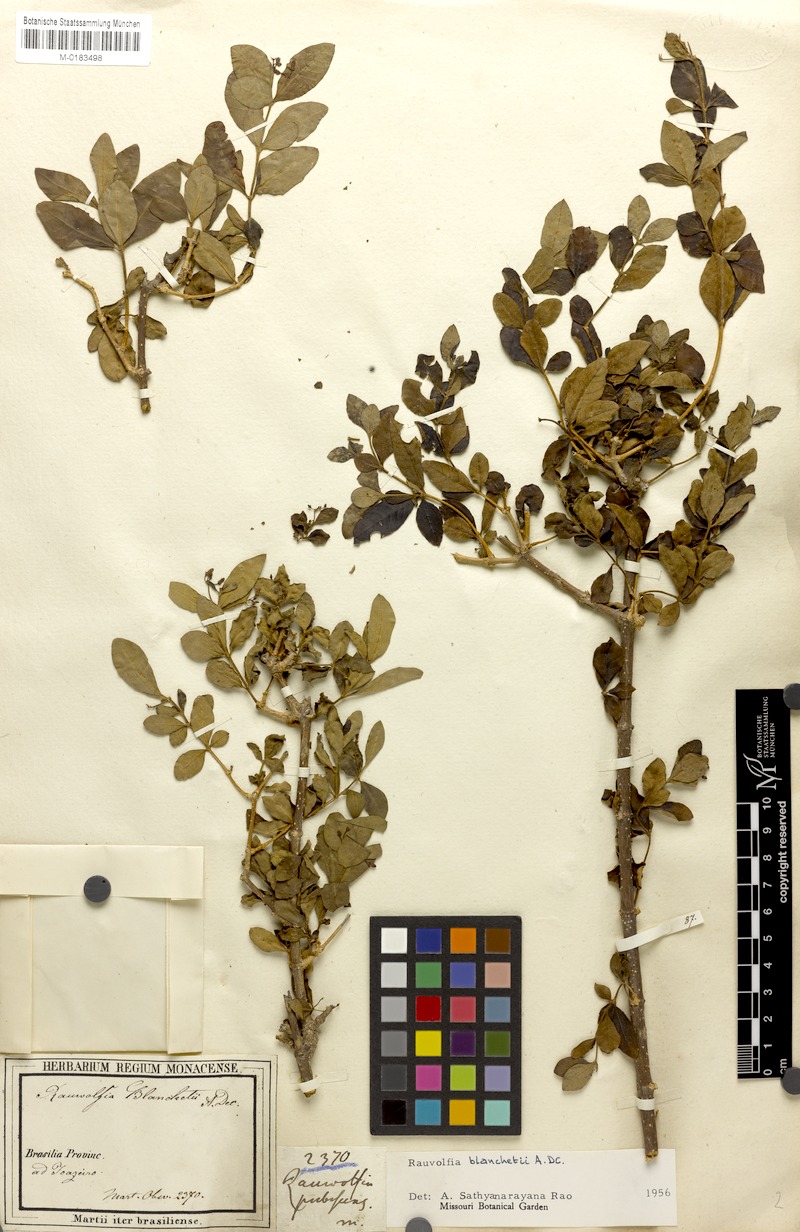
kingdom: Plantae
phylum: Tracheophyta
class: Magnoliopsida
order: Gentianales
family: Apocynaceae
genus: Rauvolfia
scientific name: Rauvolfia ligustrina
